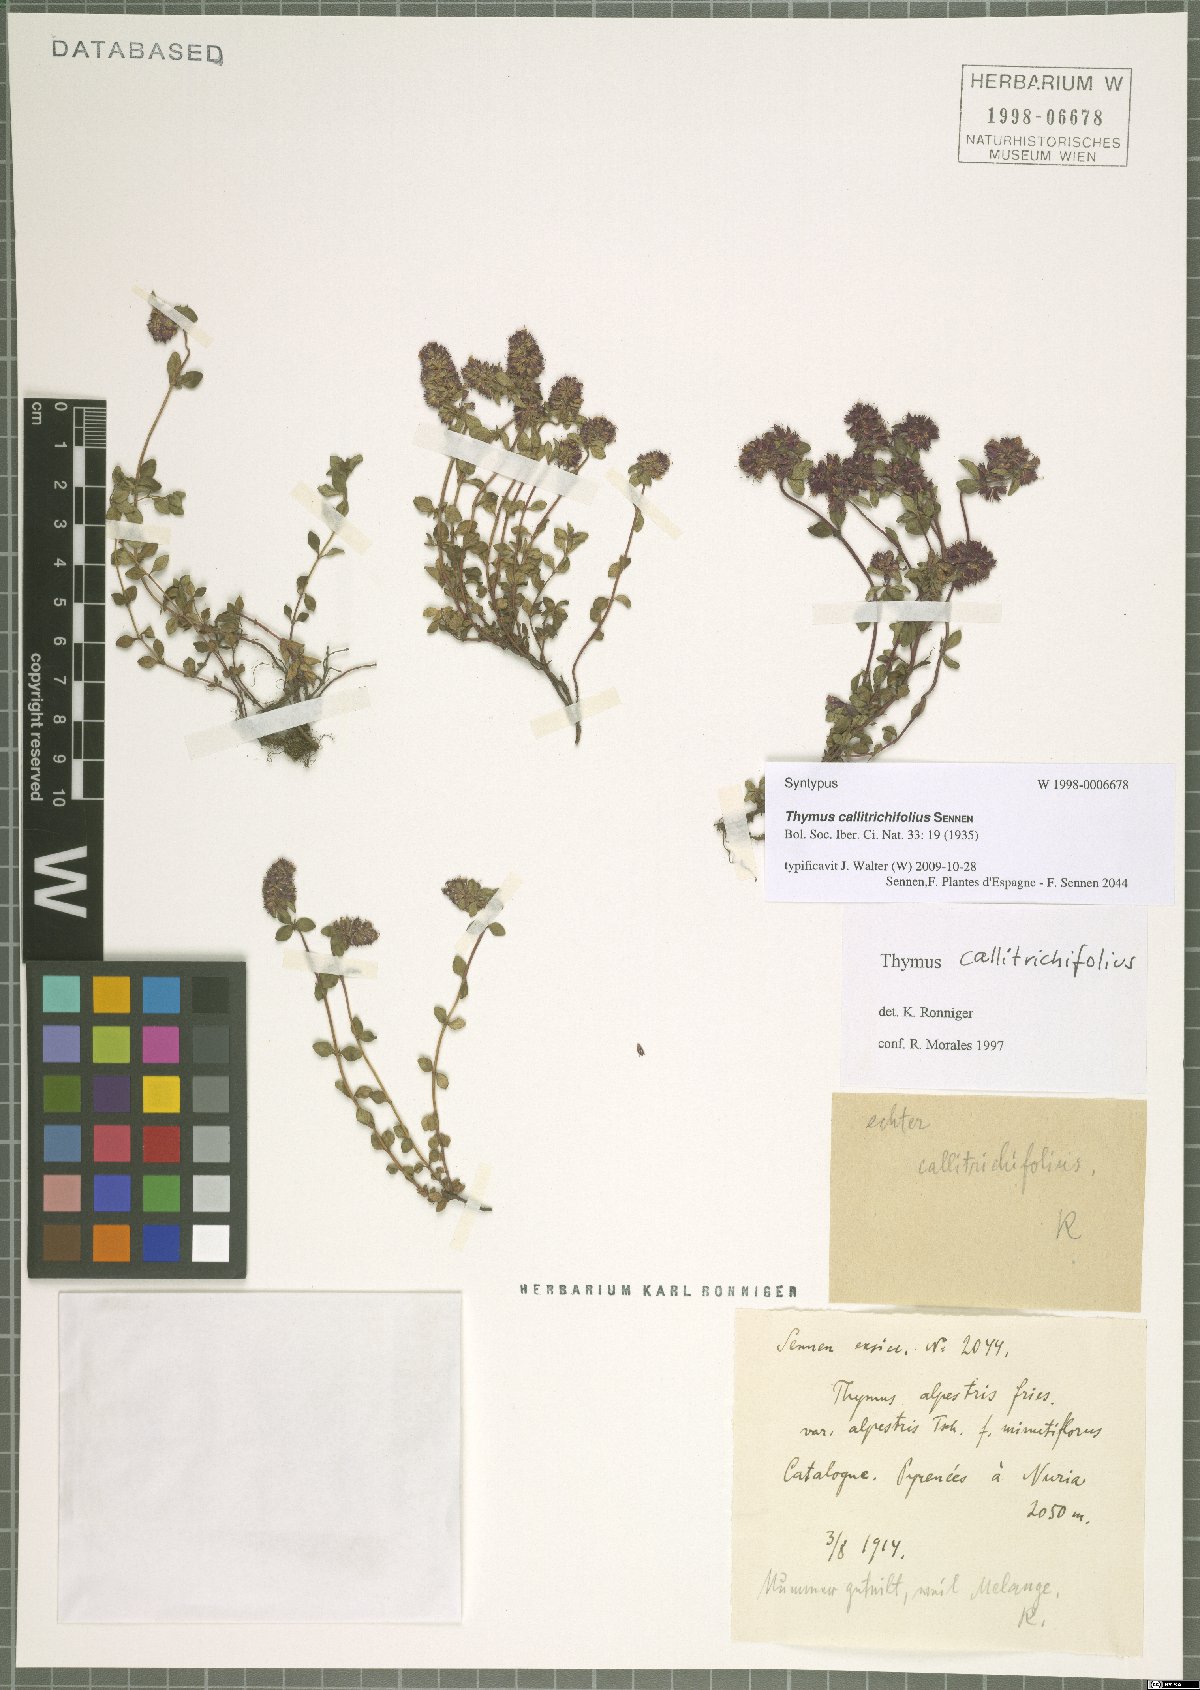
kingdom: Plantae
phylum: Tracheophyta
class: Magnoliopsida
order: Lamiales
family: Lamiaceae
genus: Thymus
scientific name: Thymus pulegioides
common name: Large thyme
